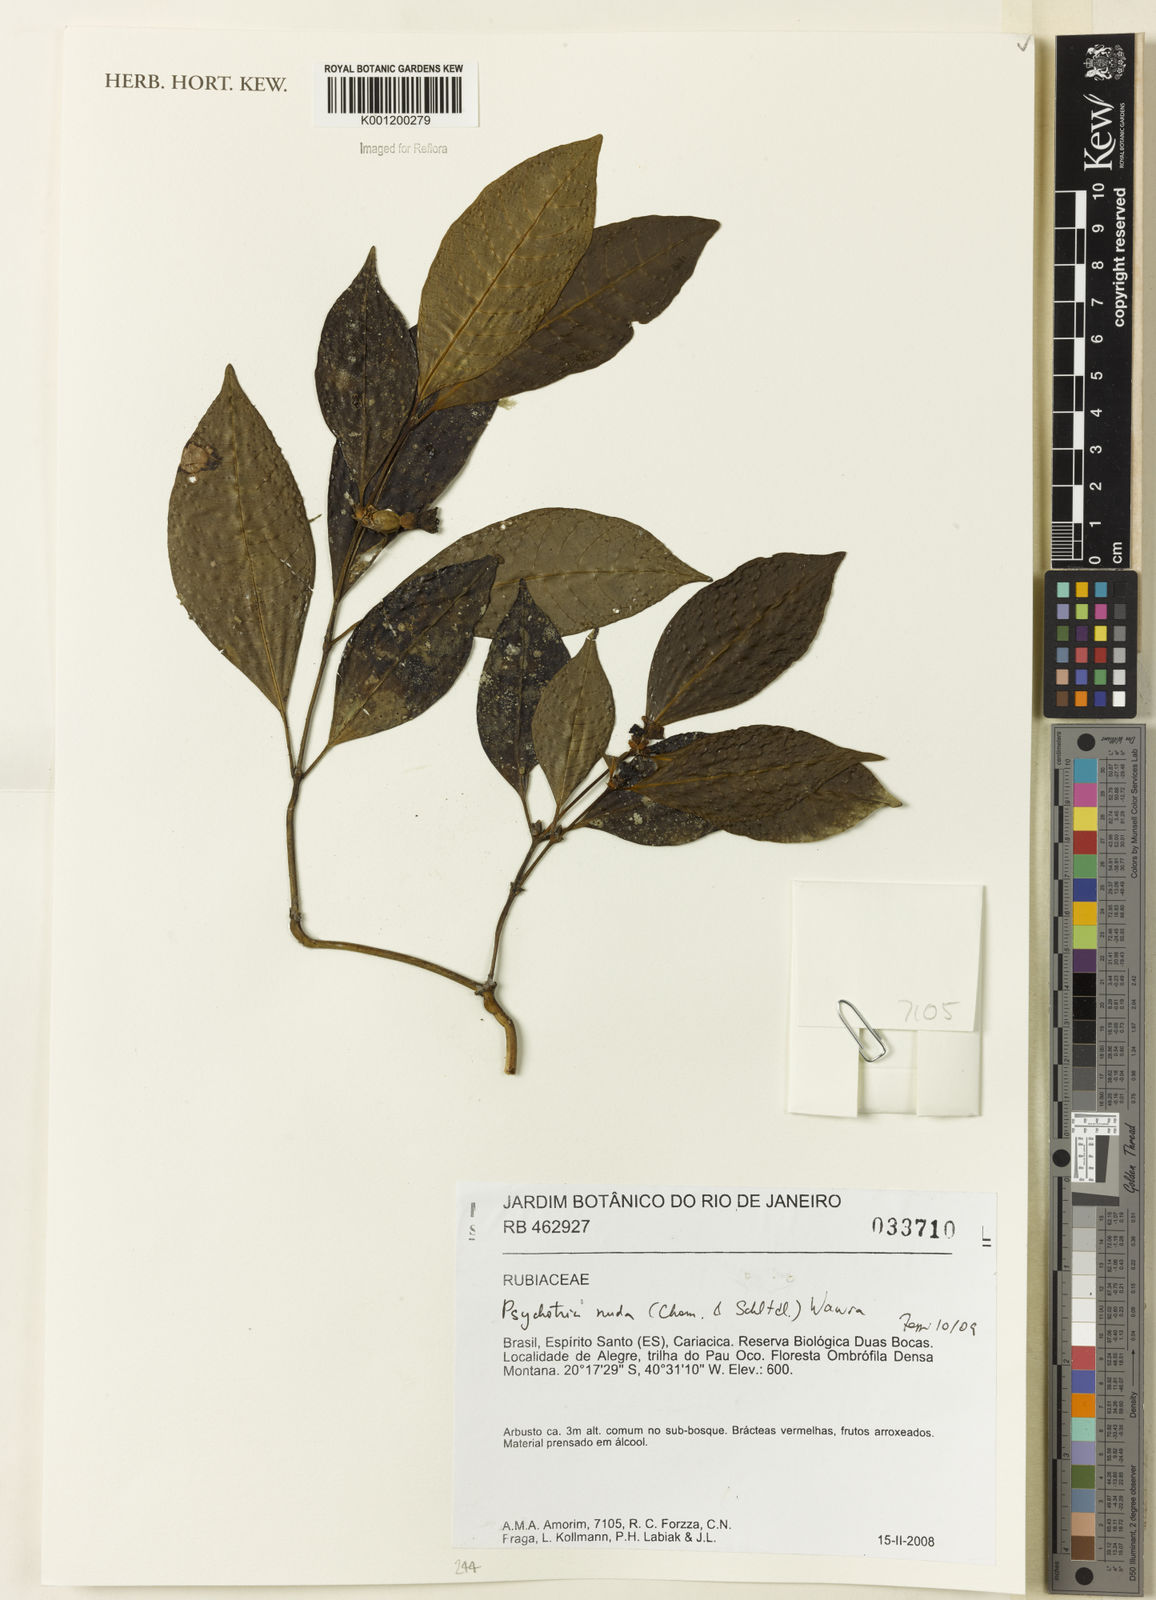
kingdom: Plantae
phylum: Tracheophyta
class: Magnoliopsida
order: Gentianales
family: Rubiaceae
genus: Psychotria
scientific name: Psychotria nuda
